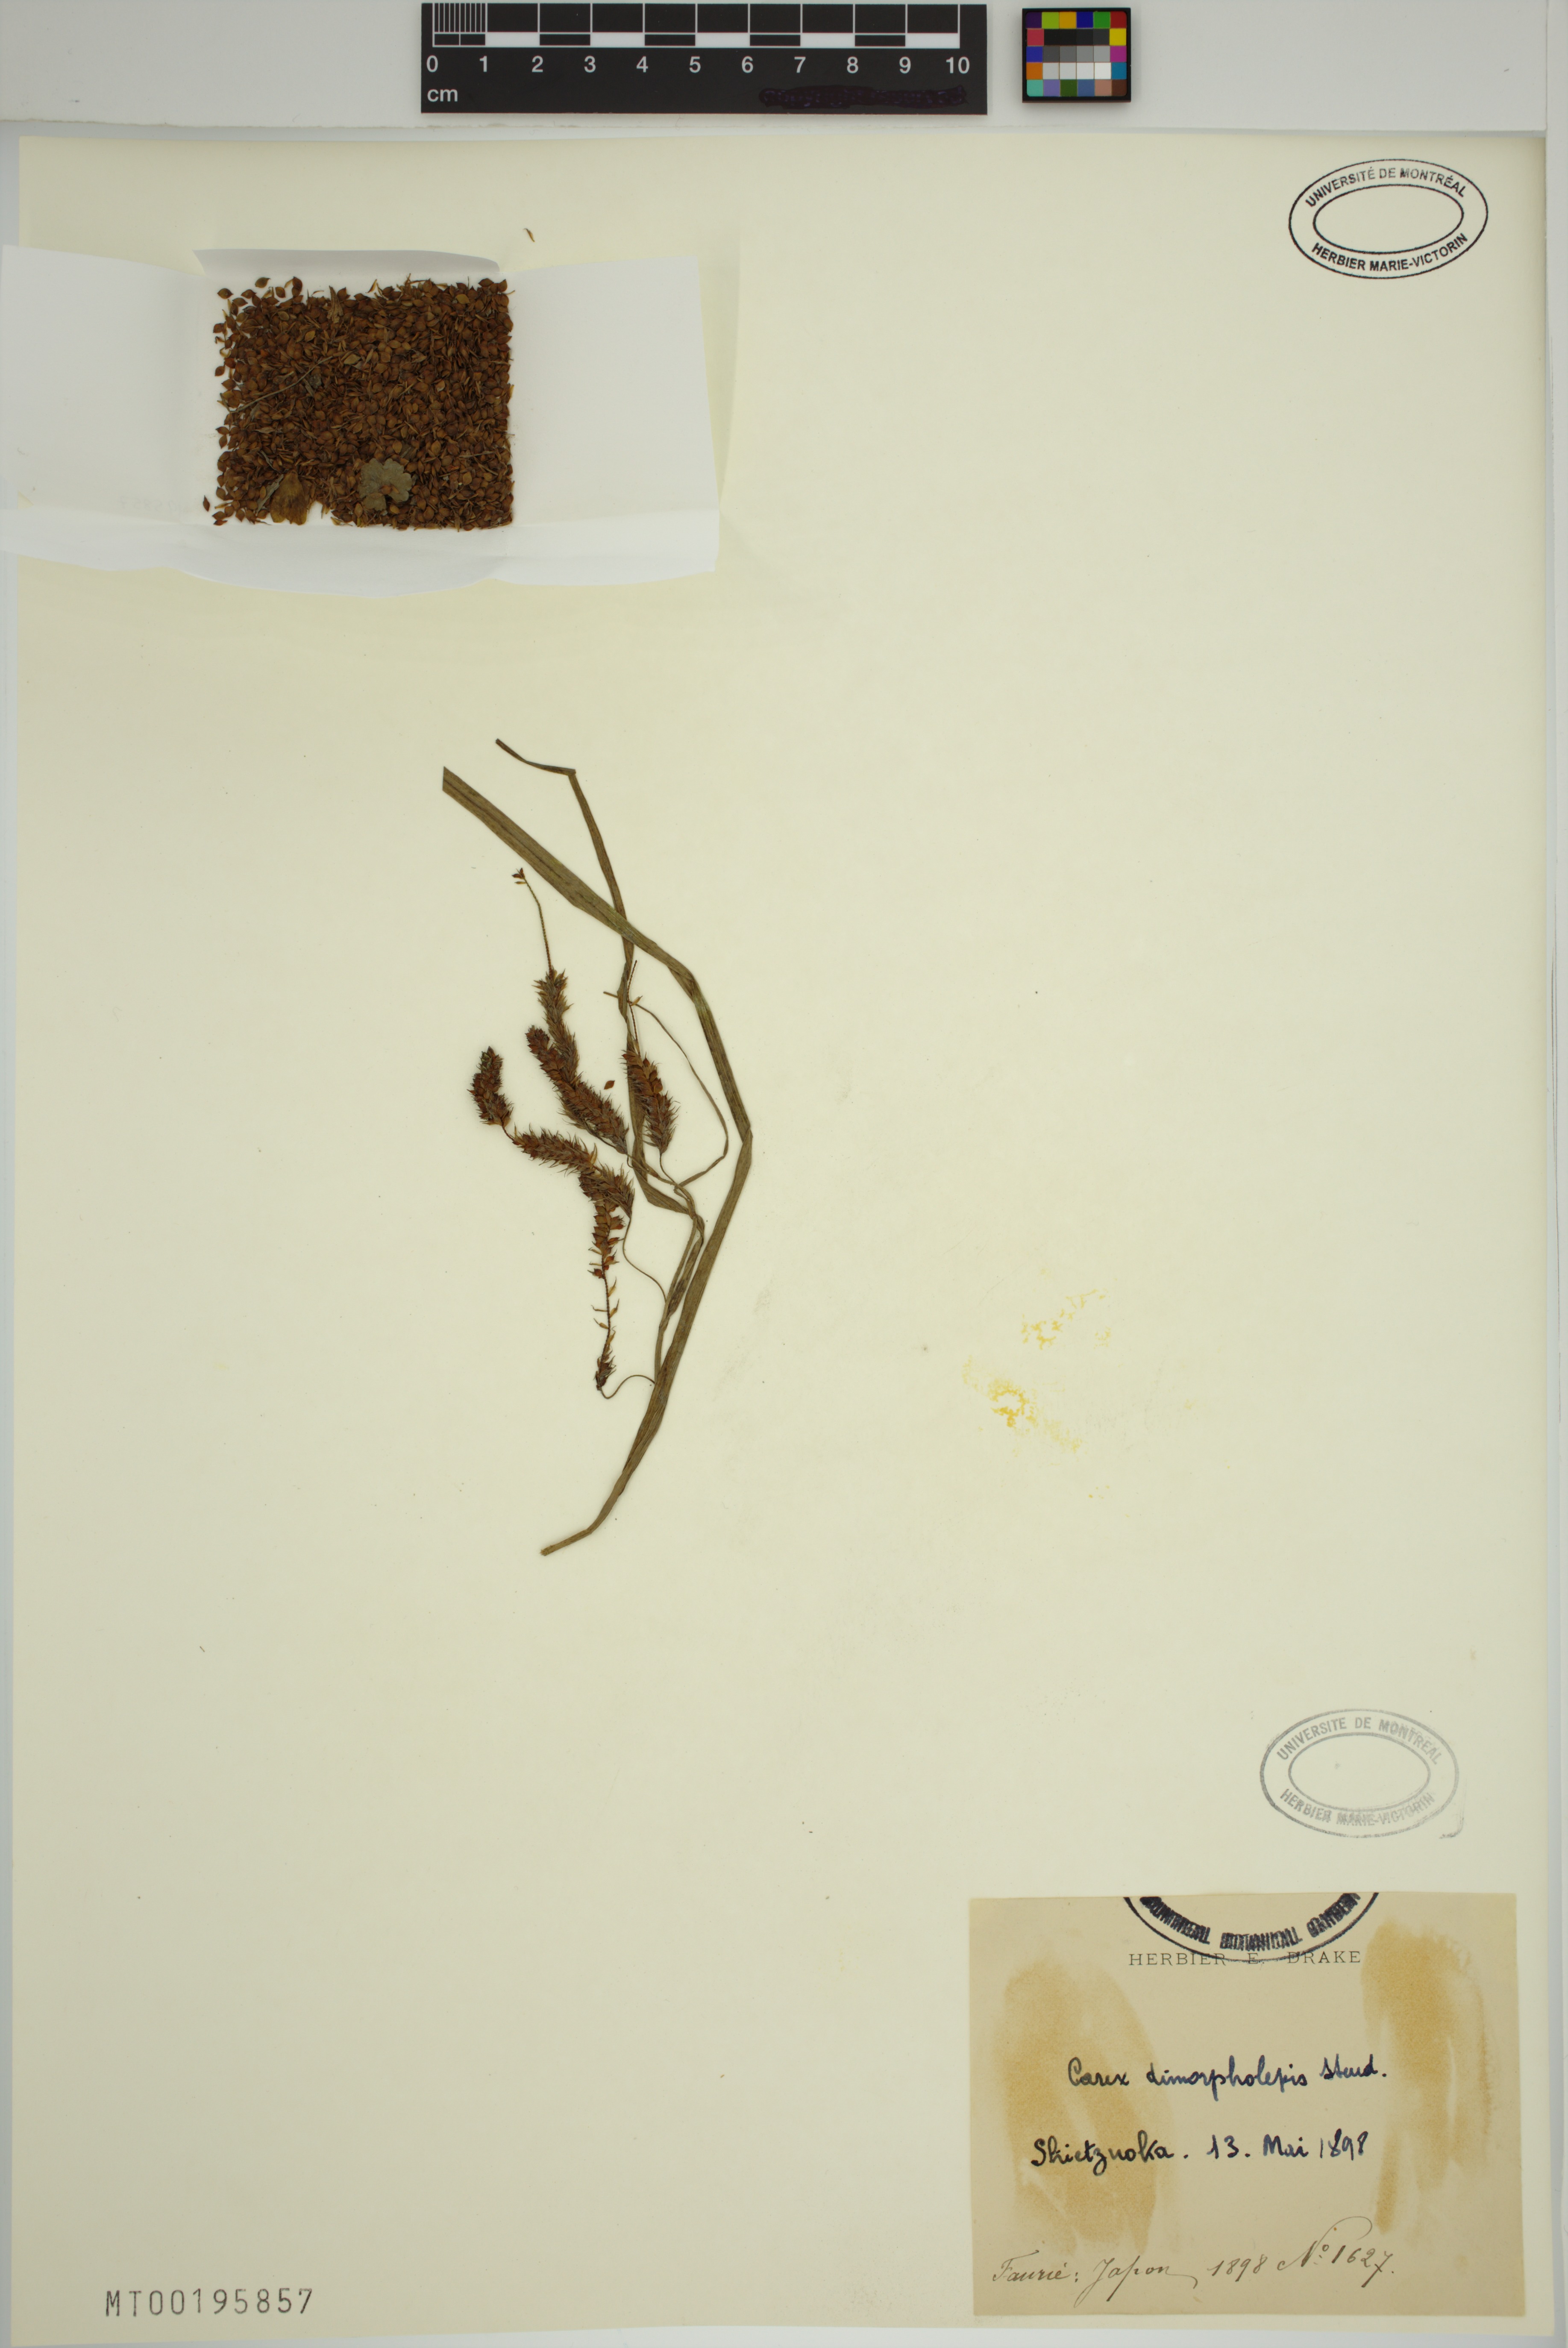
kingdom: Plantae
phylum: Tracheophyta
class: Liliopsida
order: Poales
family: Cyperaceae
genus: Carex
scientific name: Carex dimorpholepis
